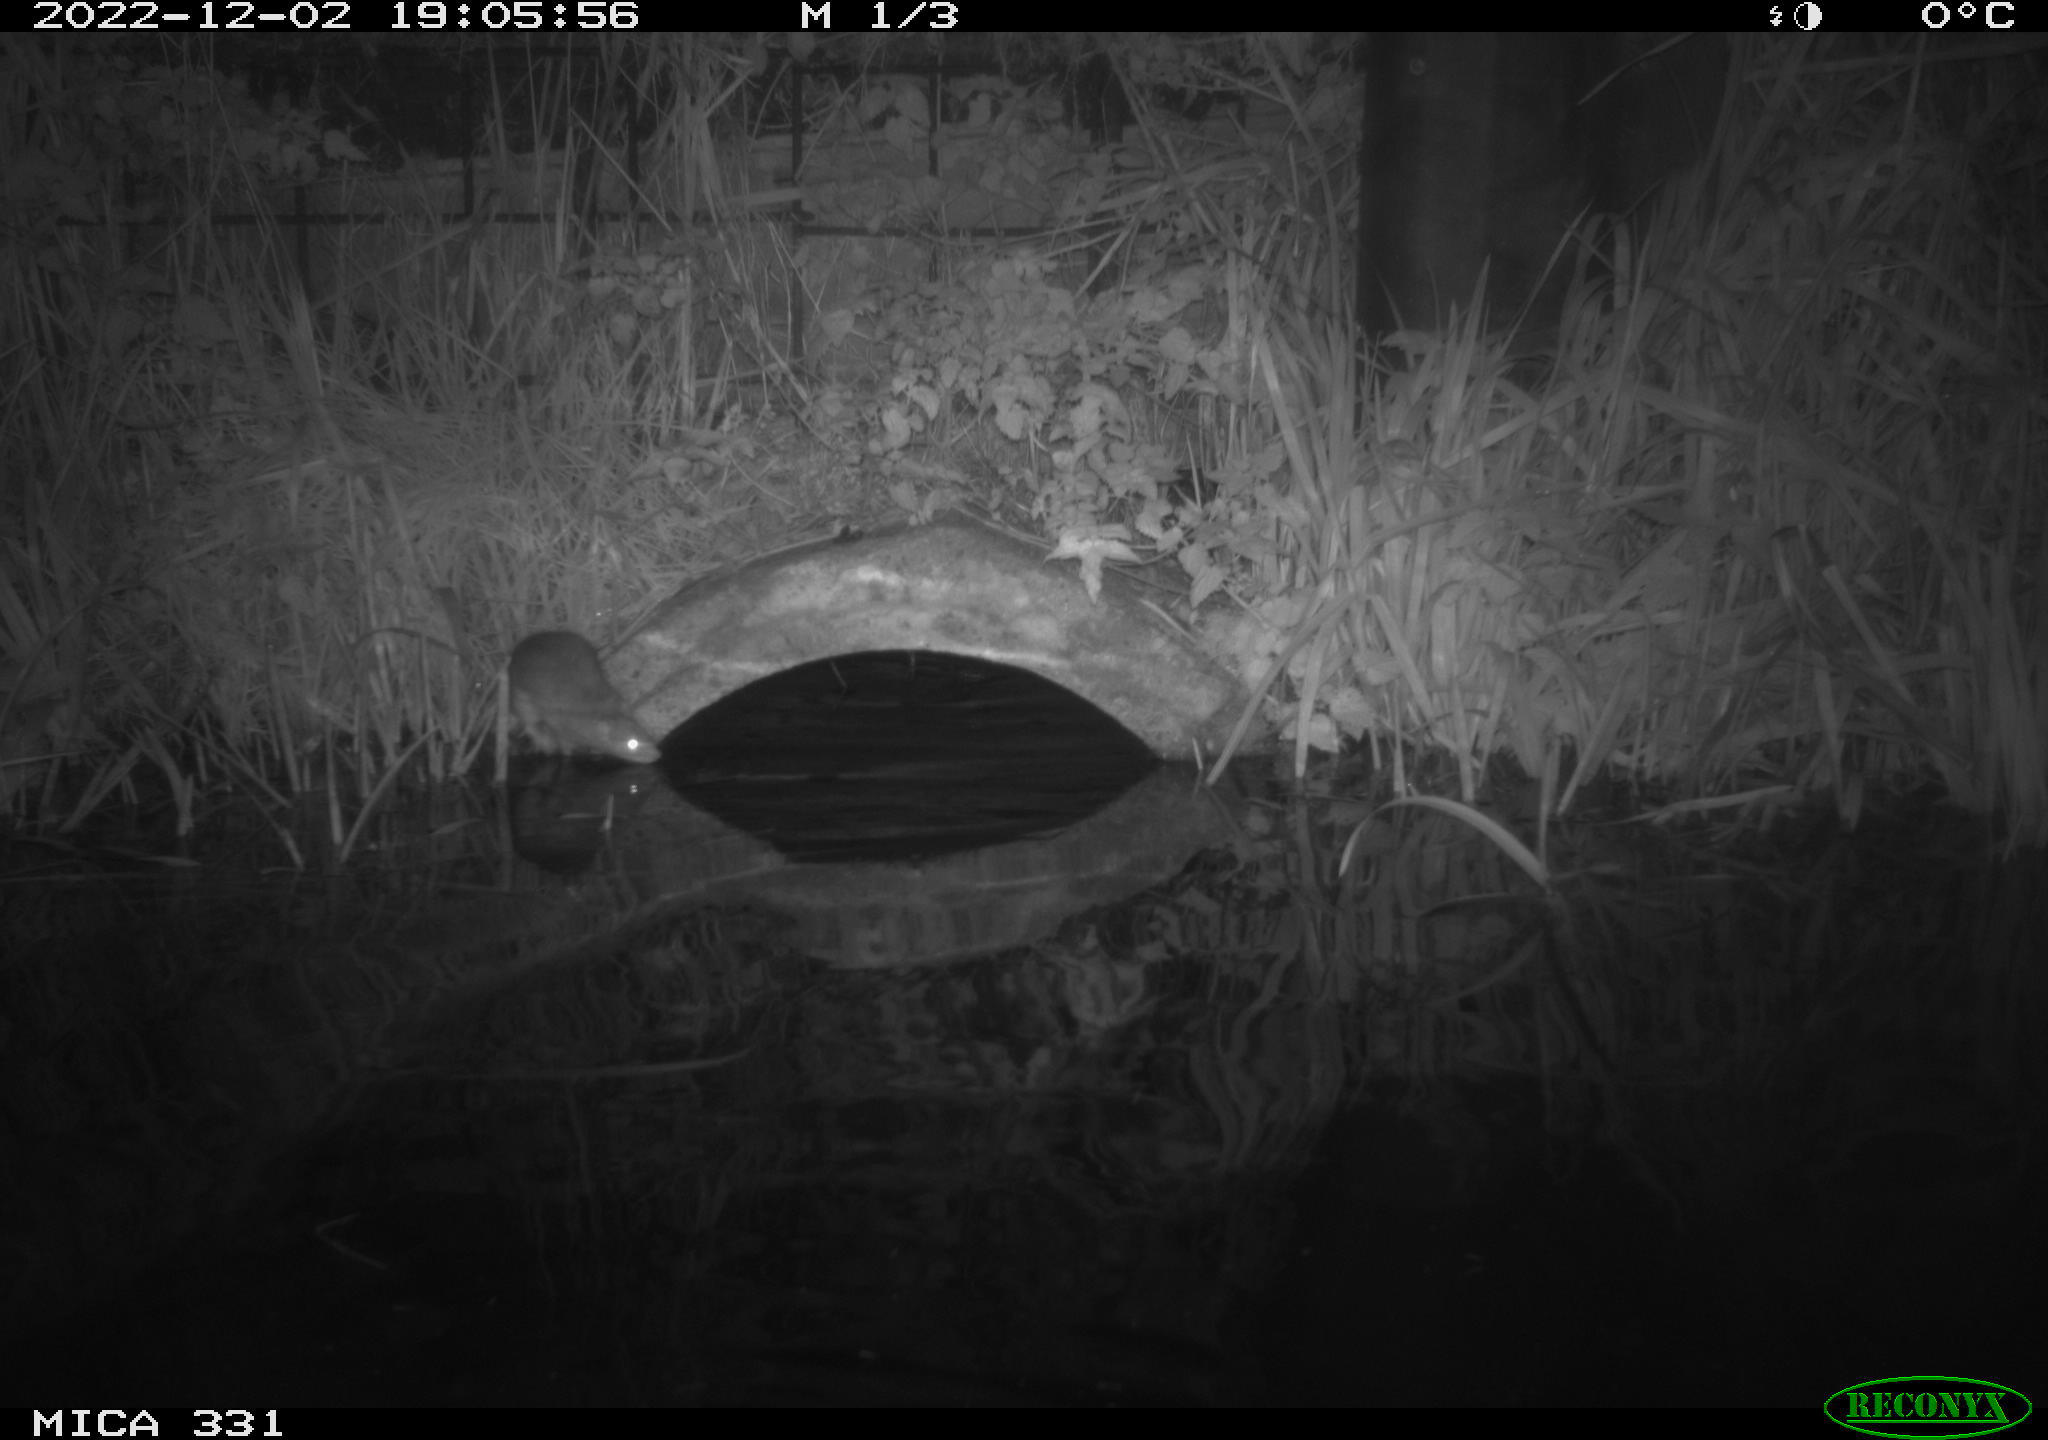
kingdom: Animalia
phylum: Chordata
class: Mammalia
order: Rodentia
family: Muridae
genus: Rattus
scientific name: Rattus norvegicus
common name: Brown rat
